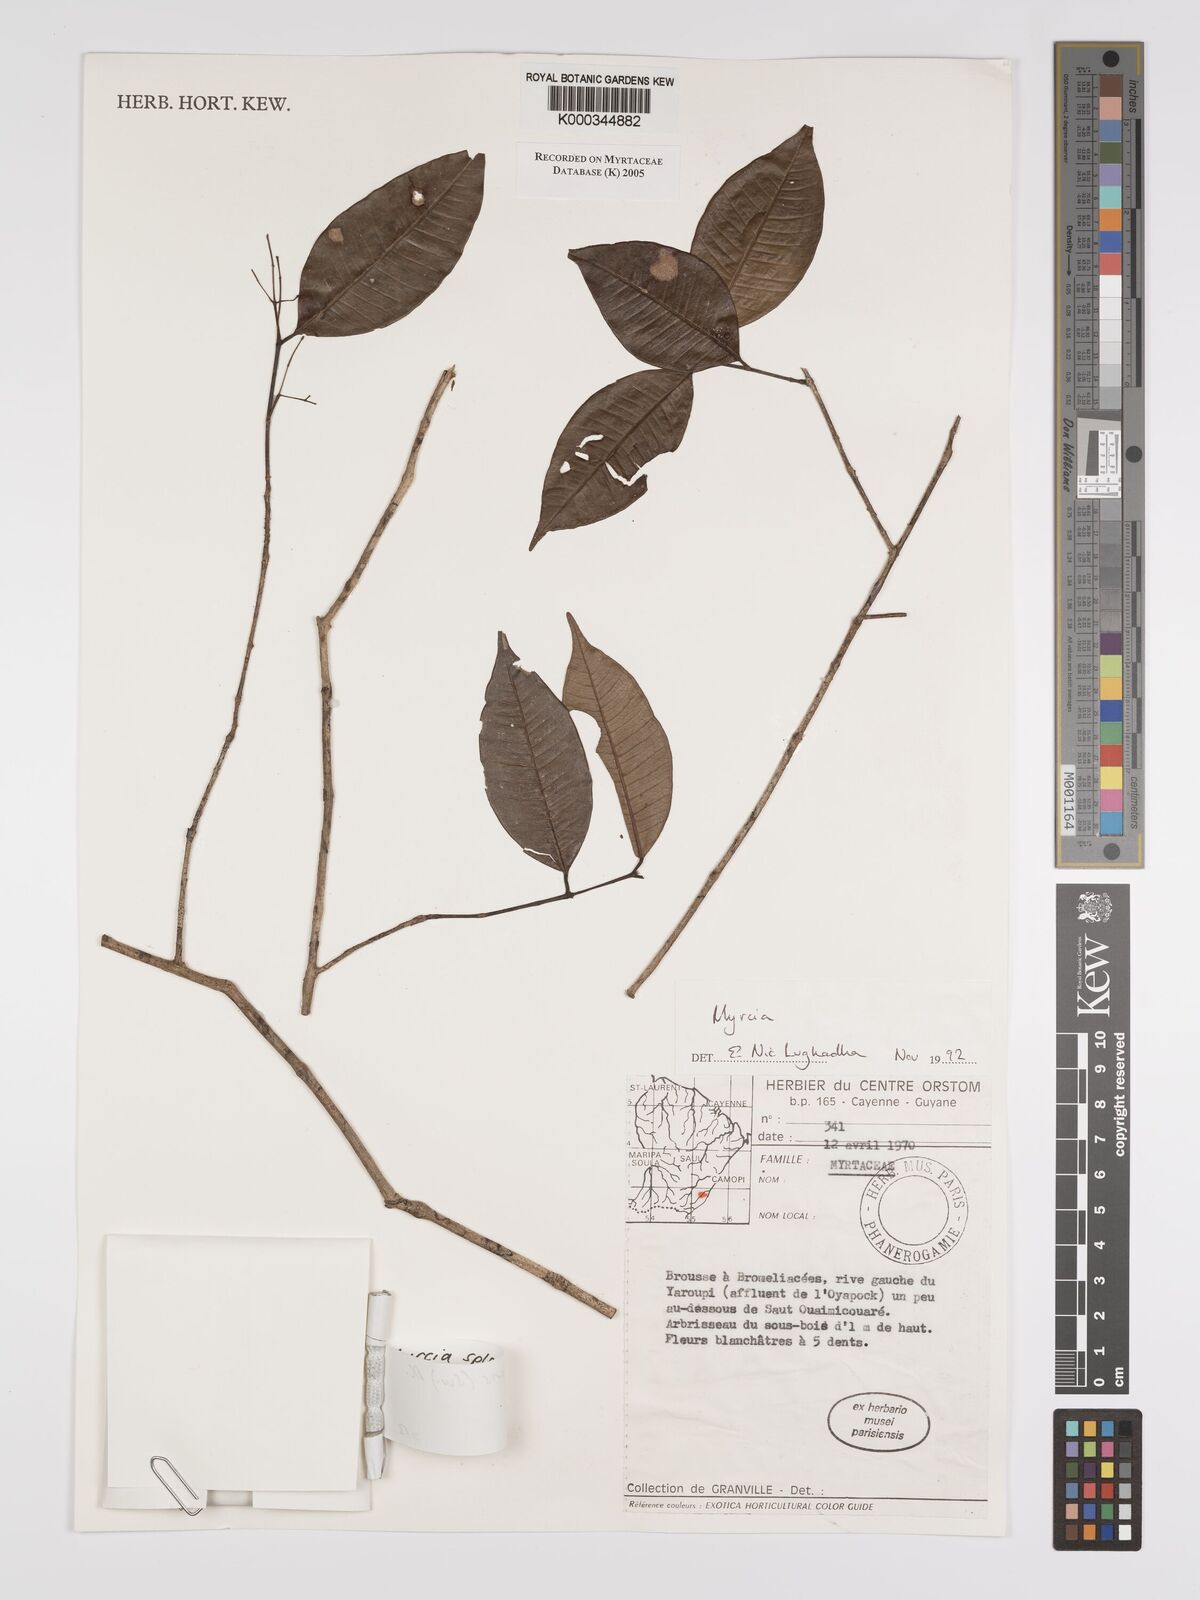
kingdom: Plantae
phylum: Tracheophyta
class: Magnoliopsida
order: Myrtales
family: Myrtaceae
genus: Myrcia
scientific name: Myrcia splendens
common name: Surinam cherry
